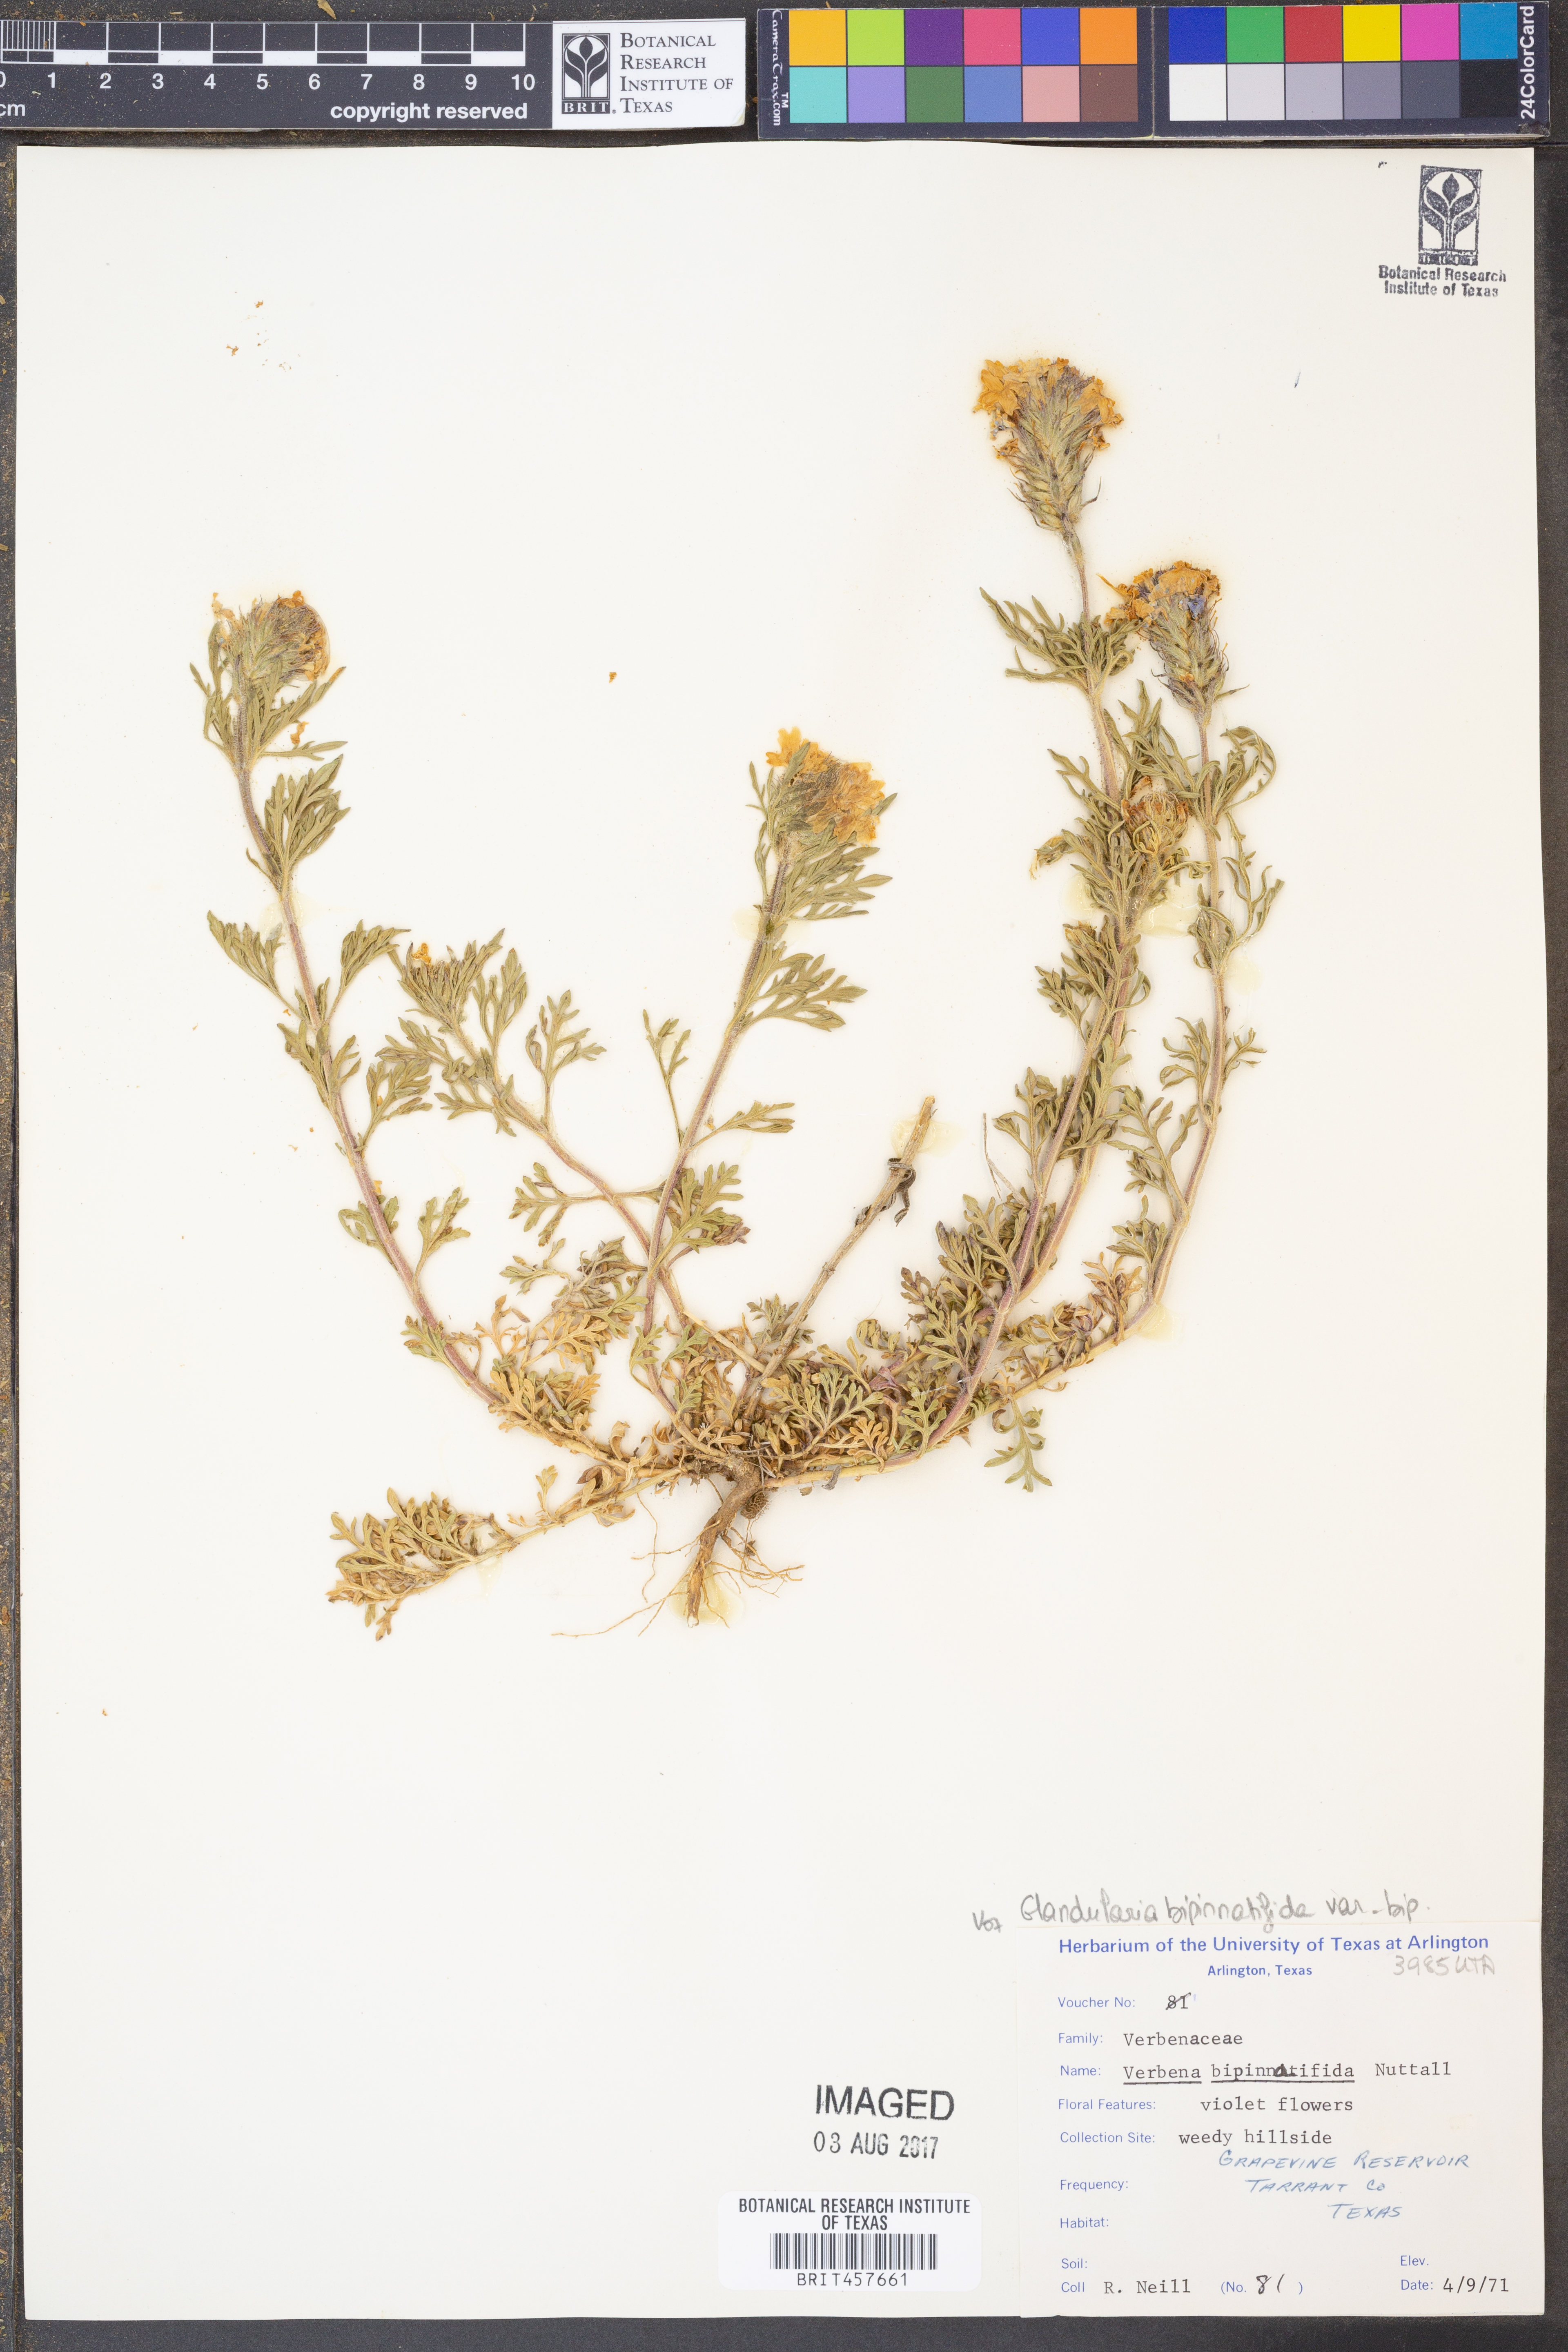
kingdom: Plantae
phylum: Tracheophyta
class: Magnoliopsida
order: Lamiales
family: Verbenaceae
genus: Verbena
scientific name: Verbena bipinnatifida
